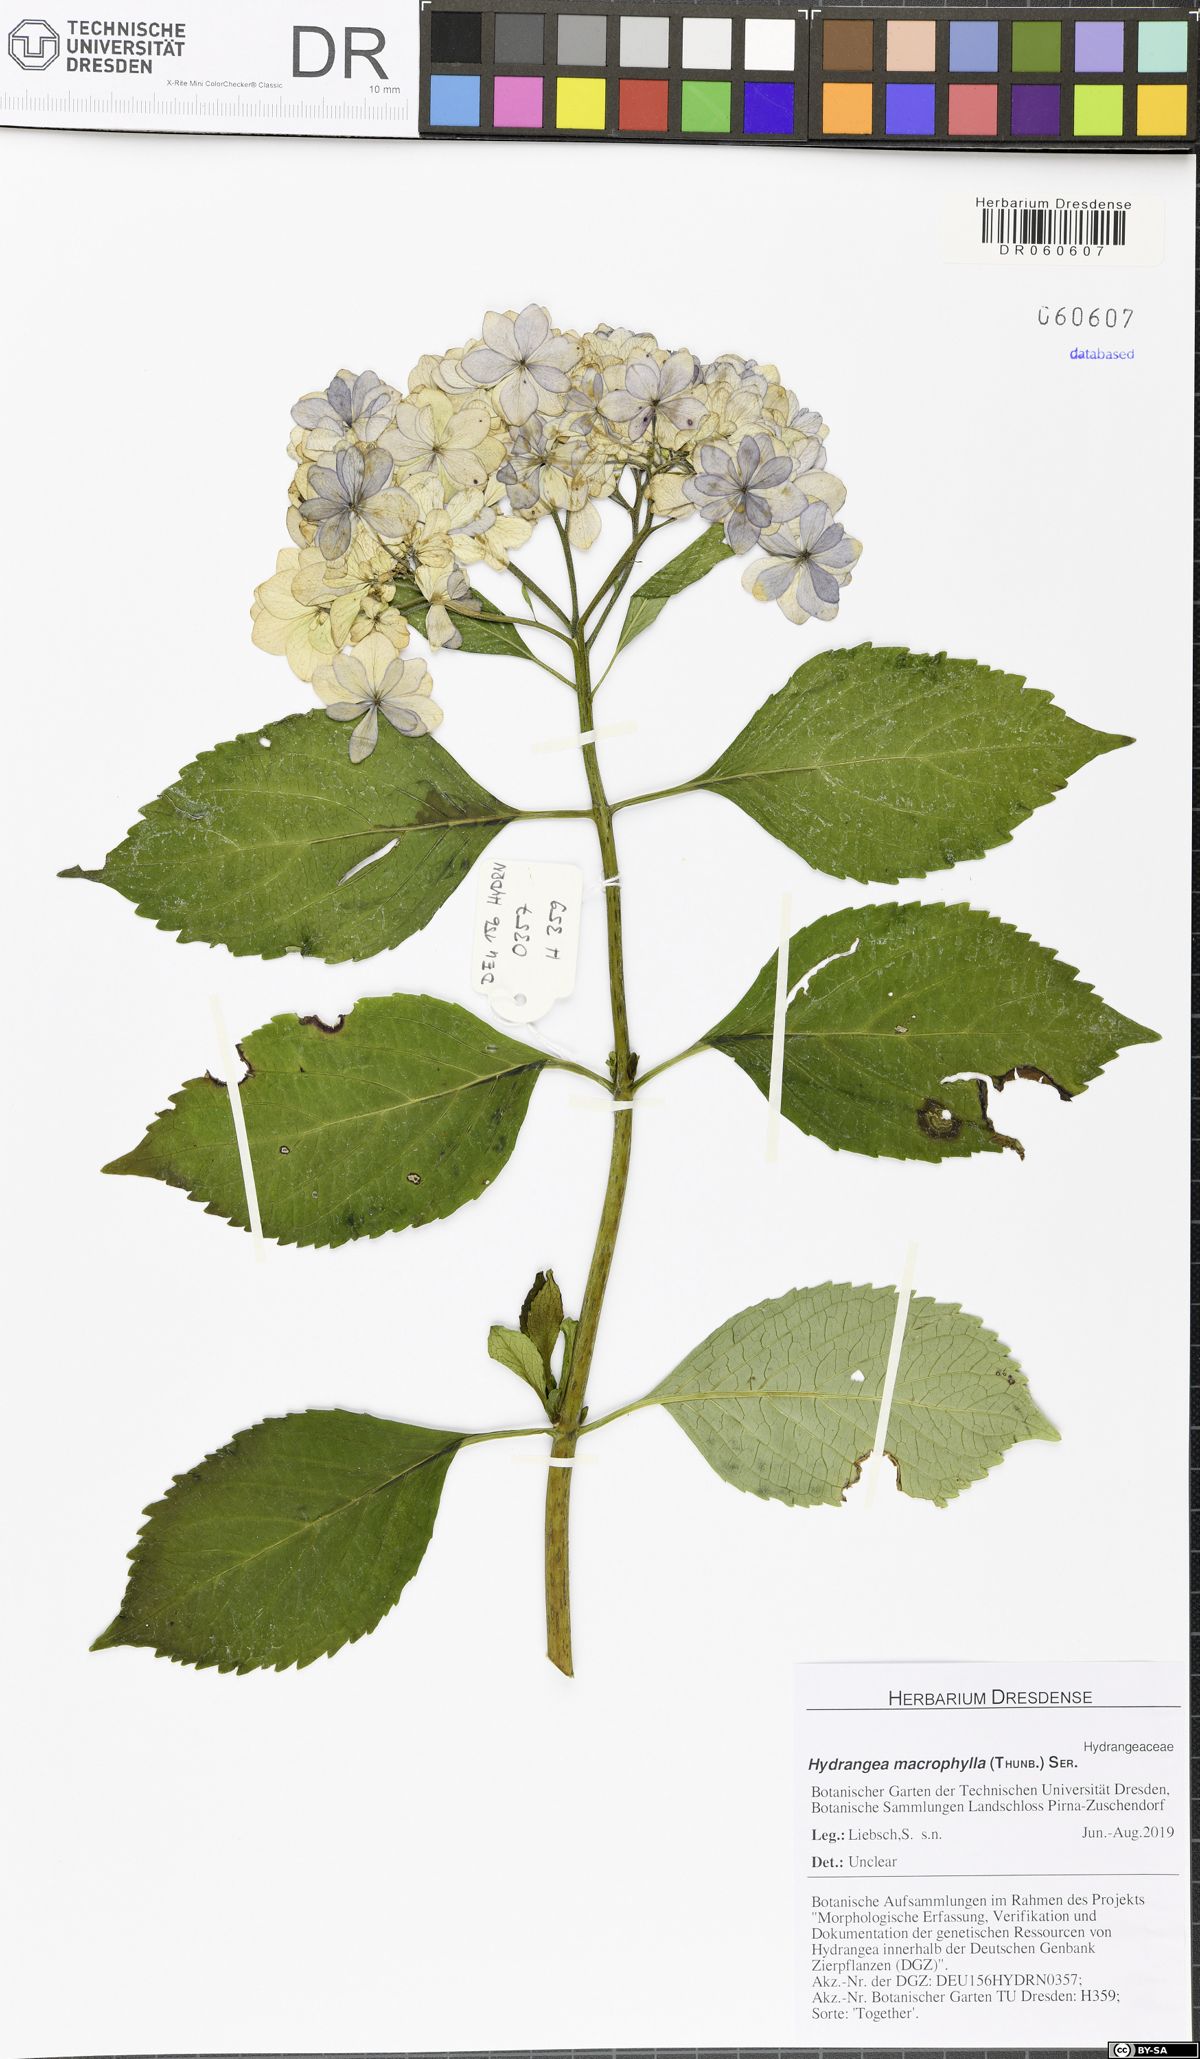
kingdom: Plantae
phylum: Tracheophyta
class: Magnoliopsida
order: Cornales
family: Hydrangeaceae
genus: Hydrangea
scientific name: Hydrangea macrophylla
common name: Hydrangea
